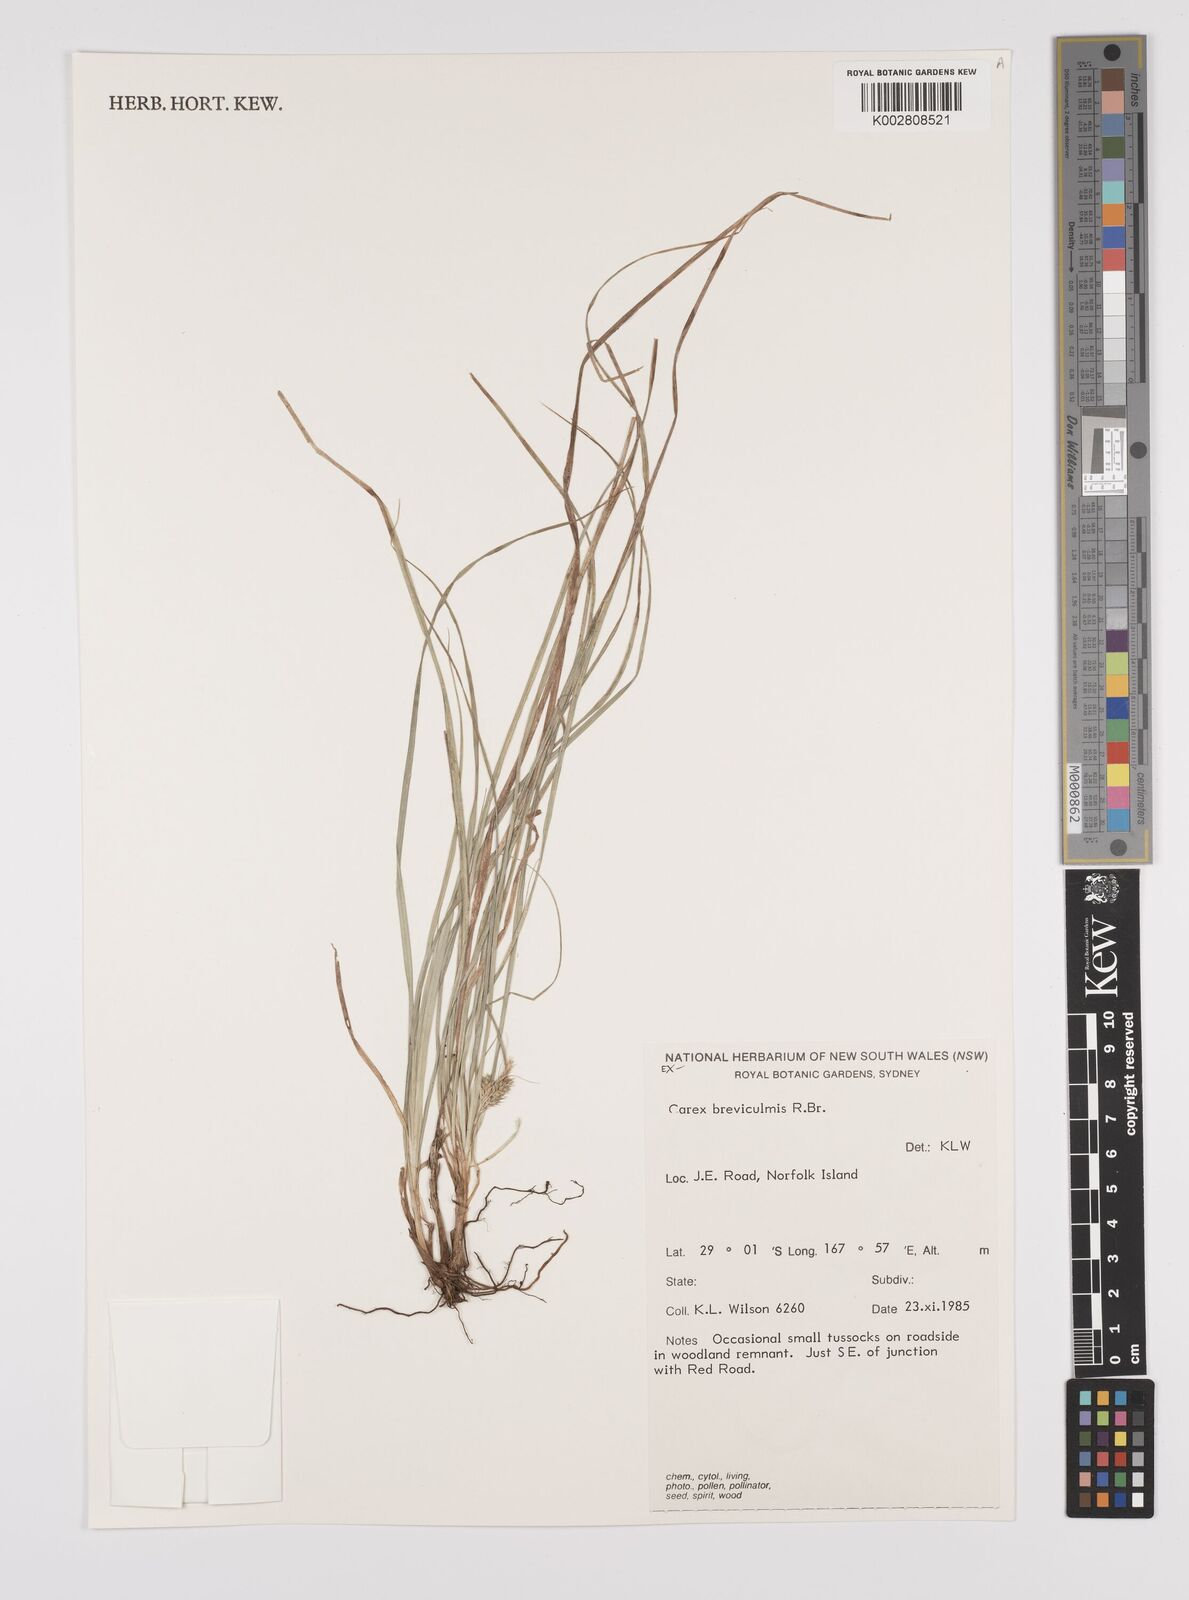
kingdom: Plantae
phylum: Tracheophyta
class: Liliopsida
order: Poales
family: Cyperaceae
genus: Carex
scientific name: Carex breviculmis
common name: Asian shortstem sedge
